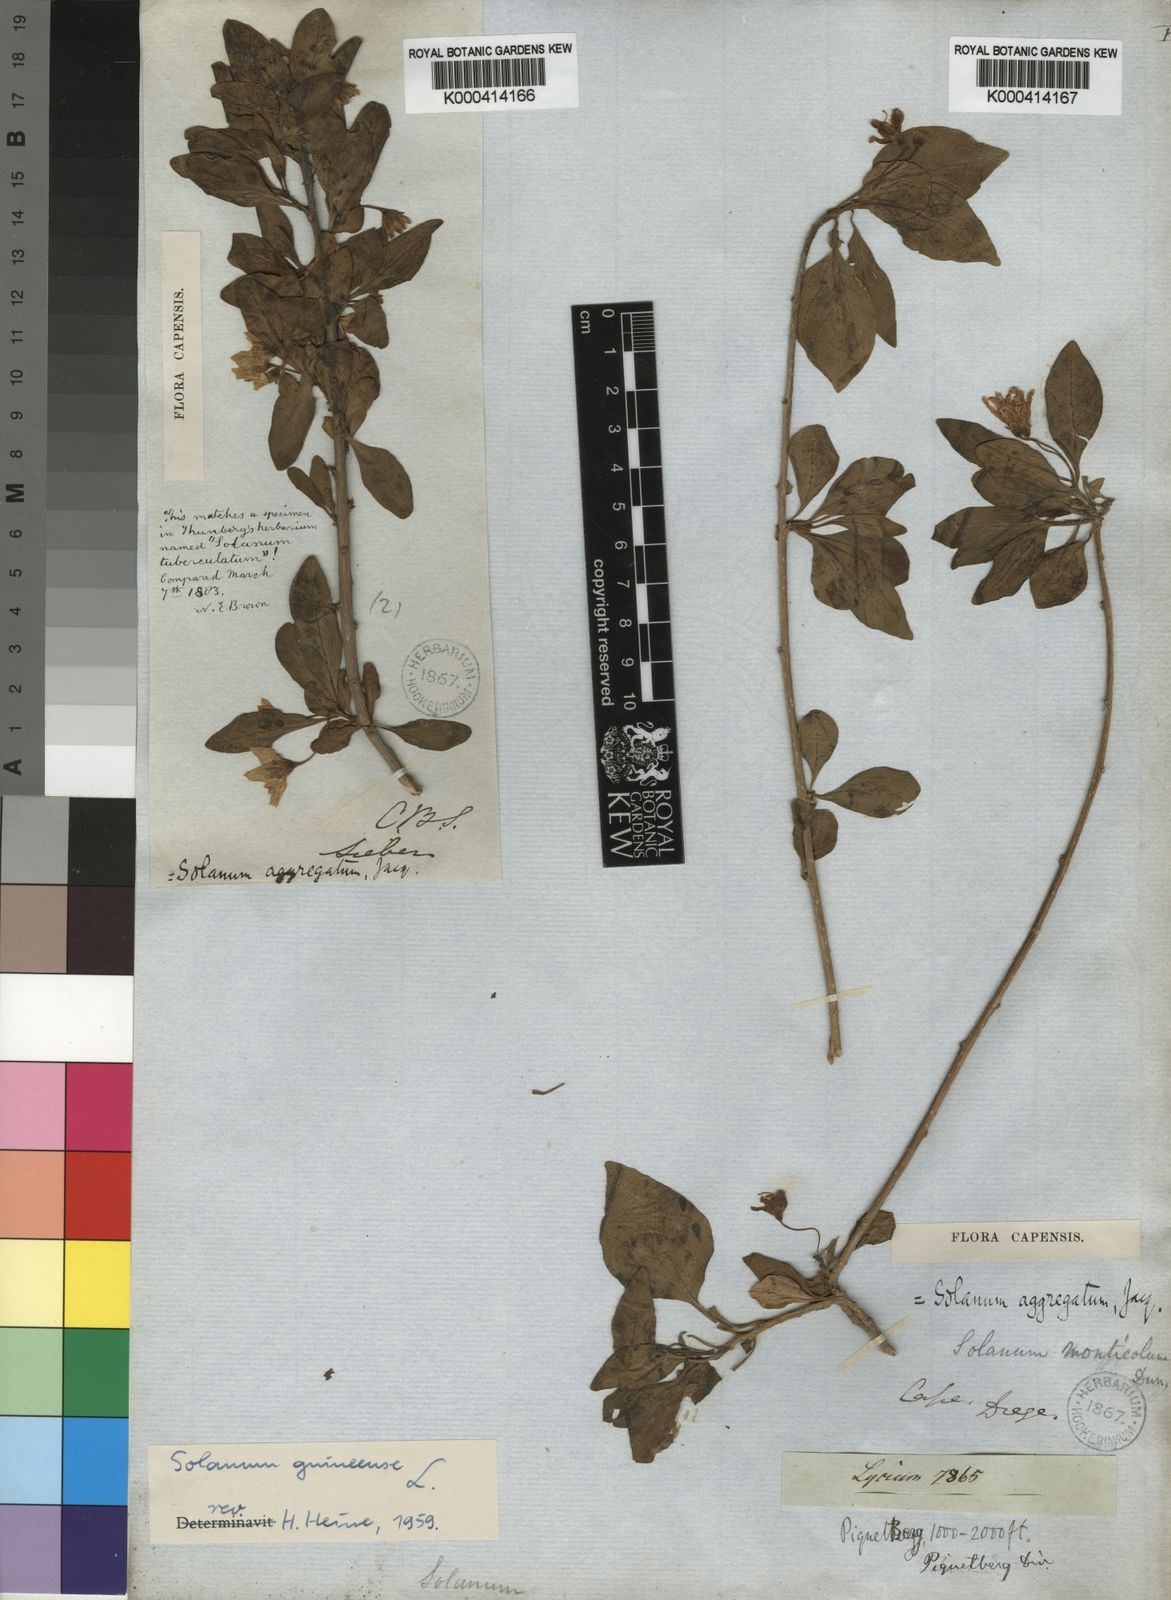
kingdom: Plantae
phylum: Tracheophyta
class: Magnoliopsida
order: Solanales
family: Solanaceae
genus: Solanum
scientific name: Solanum guineense
